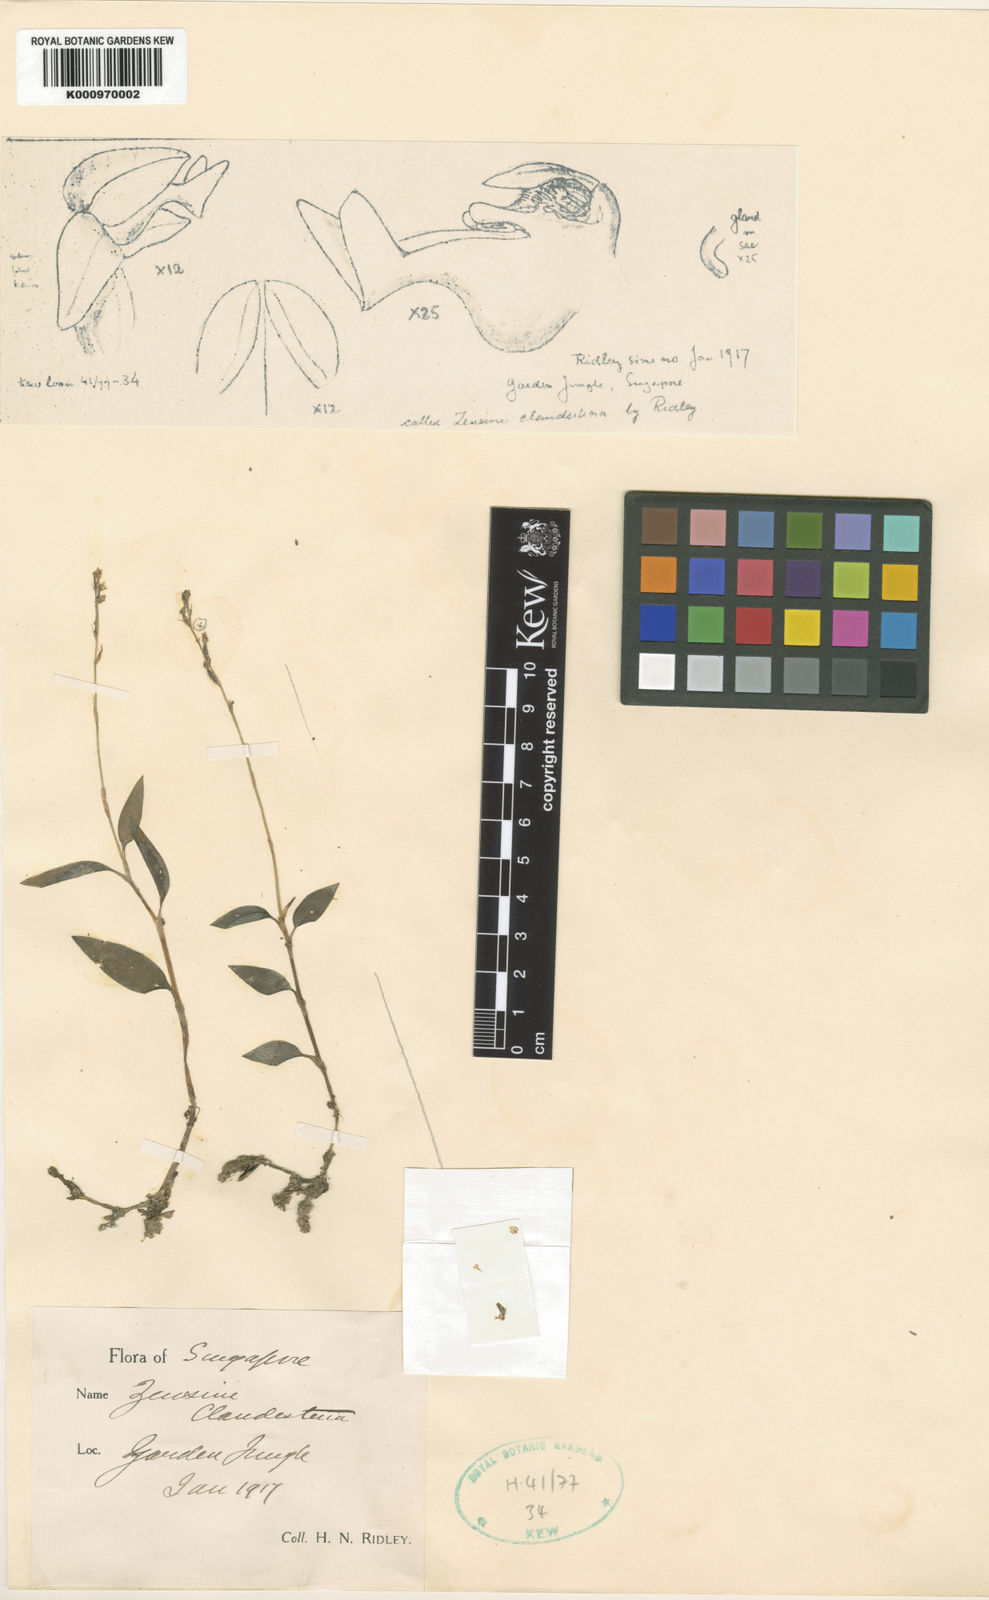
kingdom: Plantae
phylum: Tracheophyta
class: Liliopsida
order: Asparagales
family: Orchidaceae
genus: Zeuxine
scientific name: Zeuxine parvifolia
